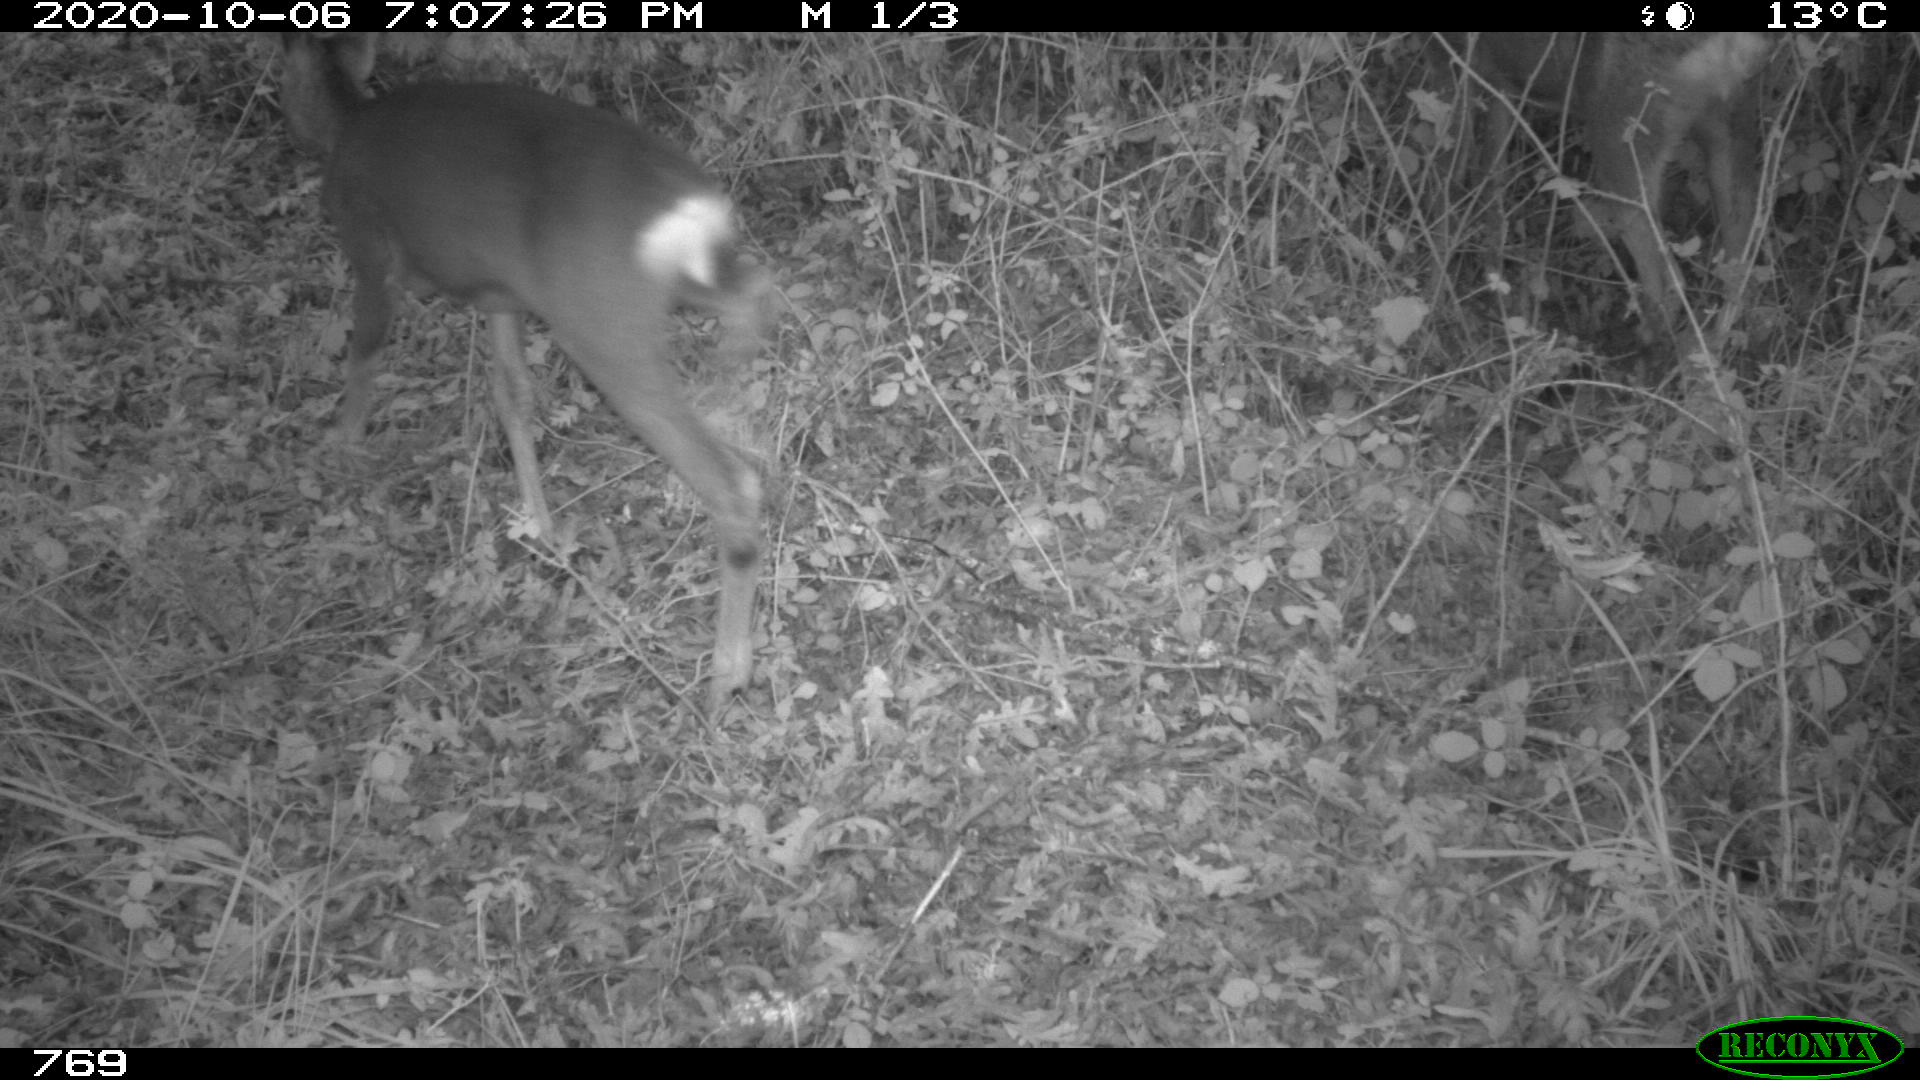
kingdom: Animalia
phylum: Chordata
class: Mammalia
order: Artiodactyla
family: Cervidae
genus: Capreolus
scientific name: Capreolus capreolus
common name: Western roe deer
